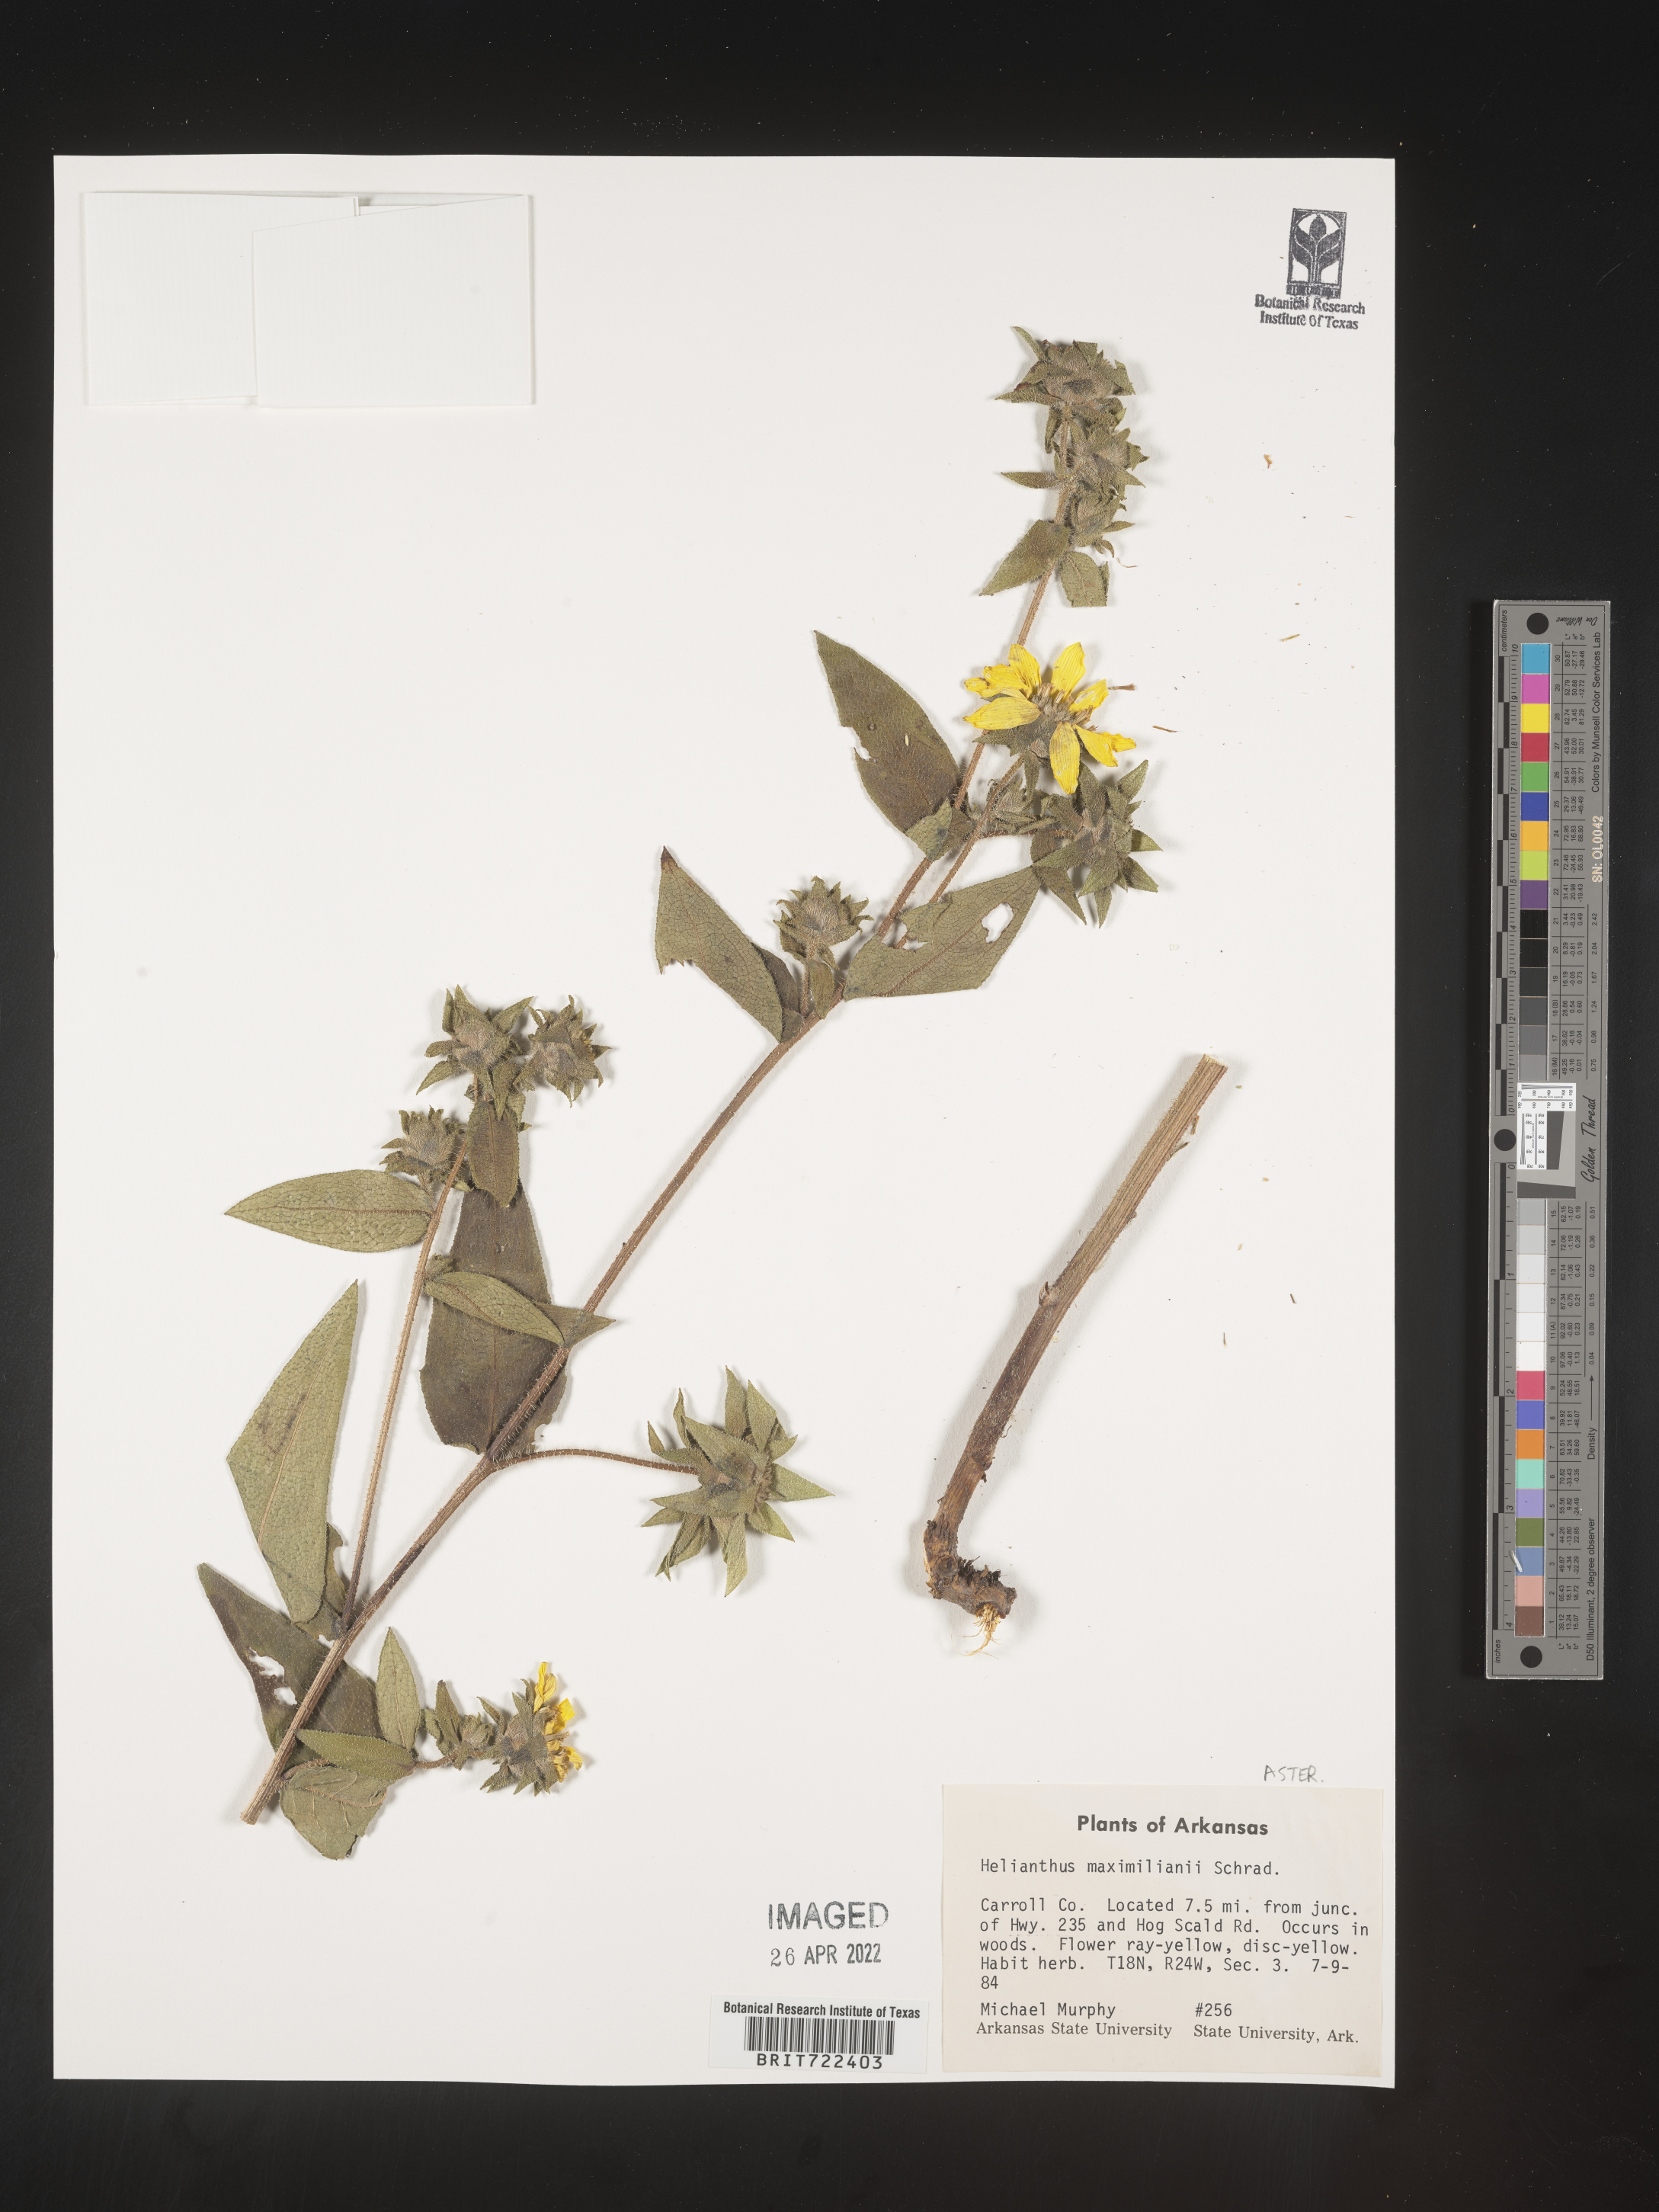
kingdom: Plantae
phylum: Tracheophyta
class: Magnoliopsida
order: Asterales
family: Asteraceae
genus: Helianthus
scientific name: Helianthus maximiliani
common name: Maximilian's sunflower
